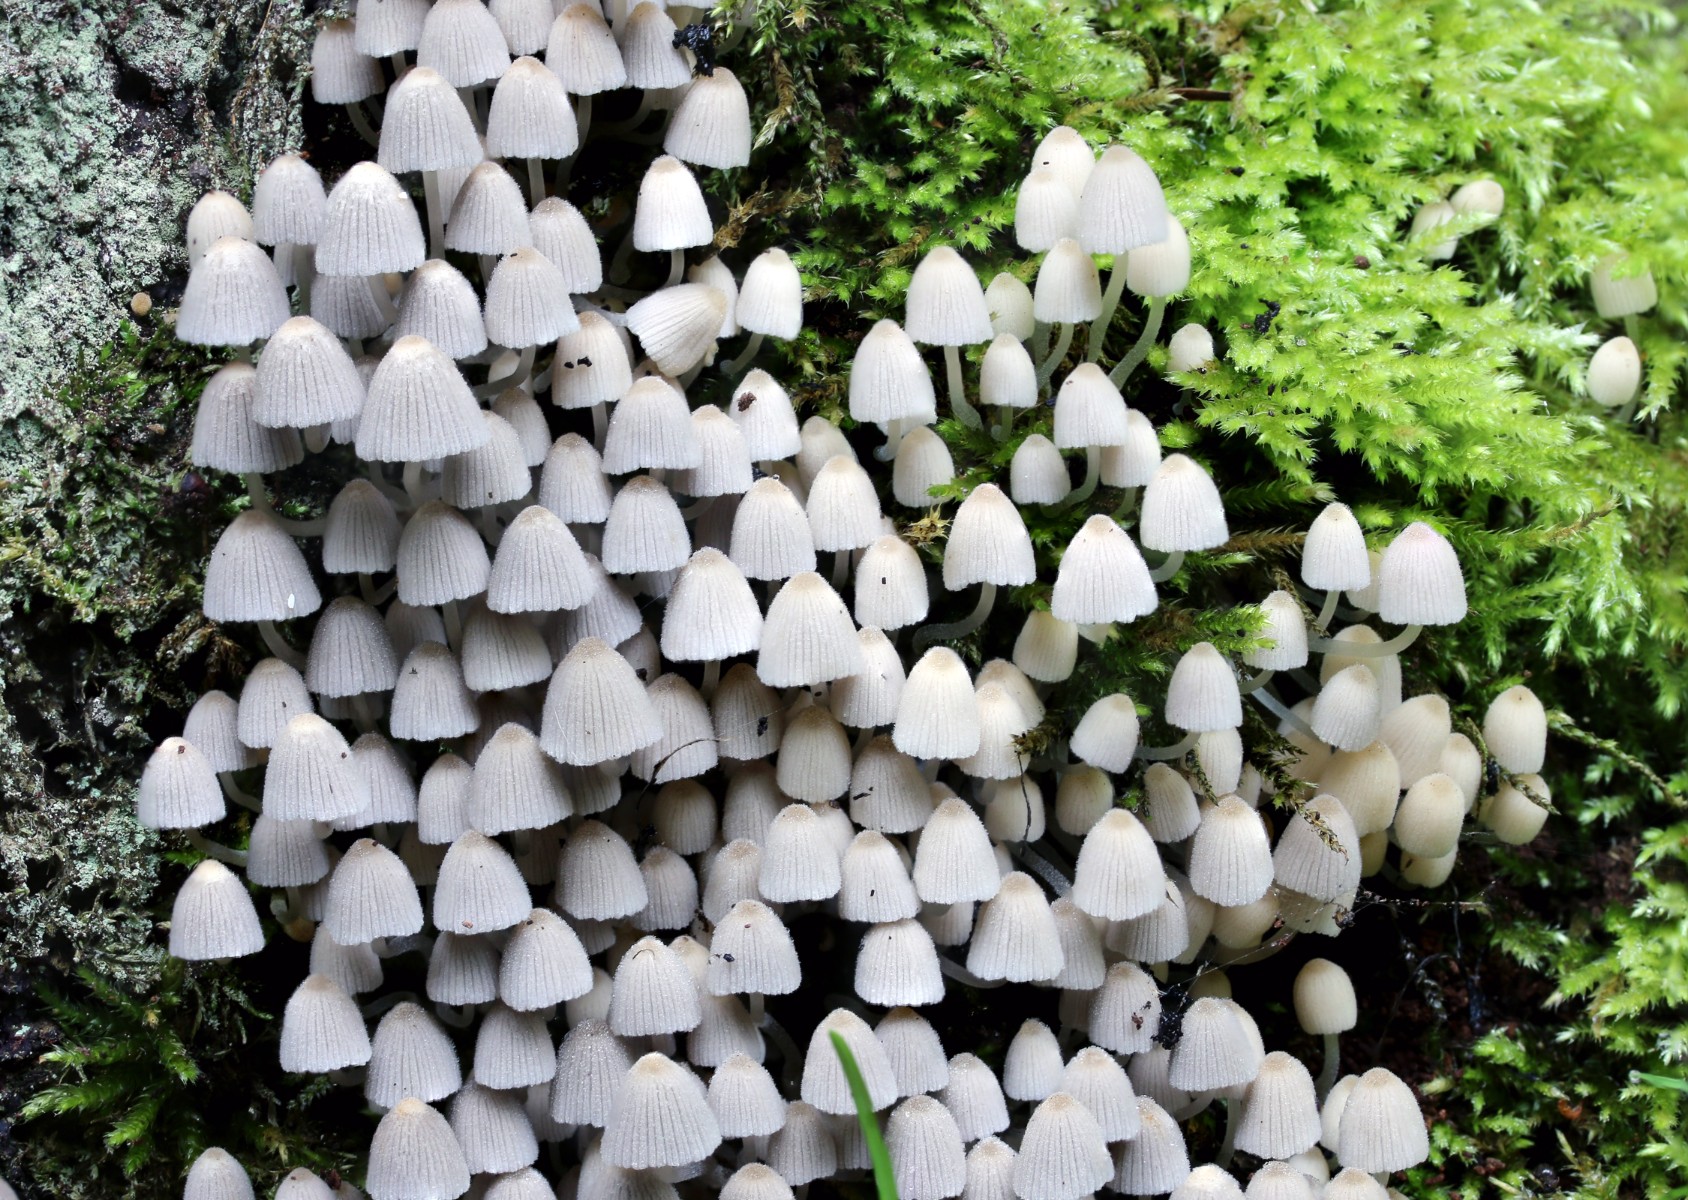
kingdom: Fungi
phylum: Basidiomycota
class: Agaricomycetes
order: Agaricales
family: Psathyrellaceae
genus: Coprinellus
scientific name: Coprinellus disseminatus
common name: bredsået blækhat
